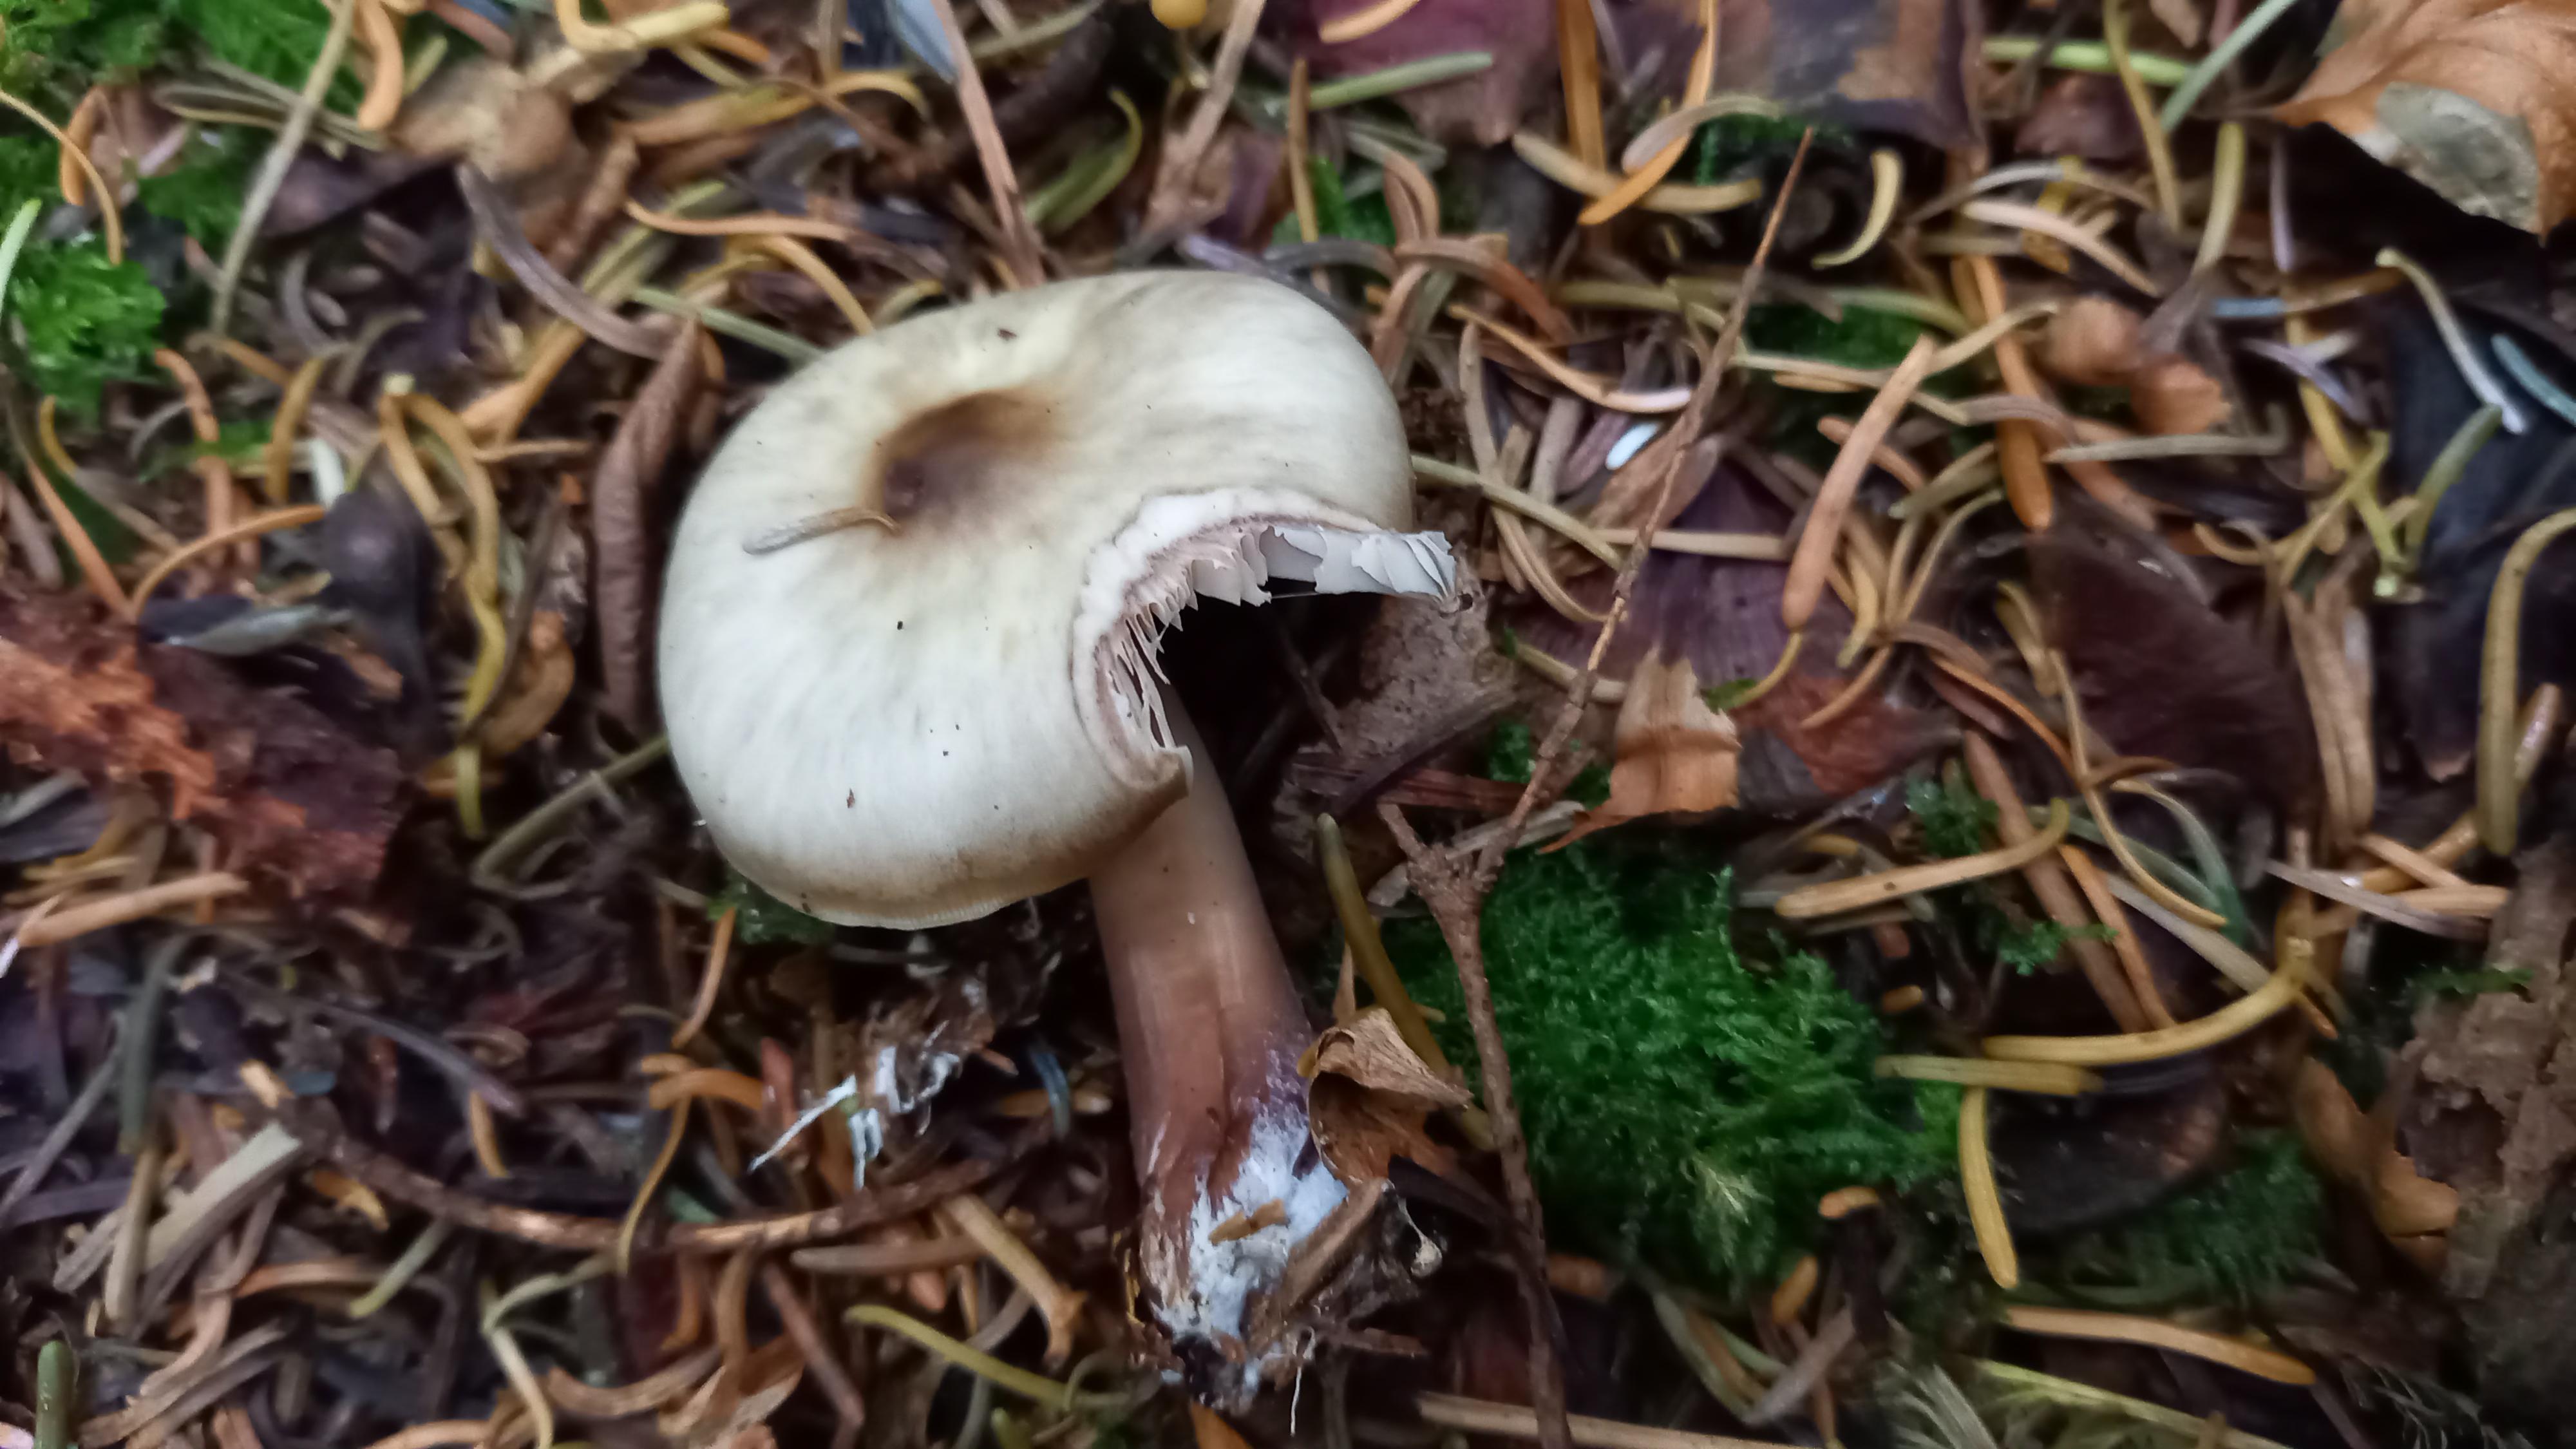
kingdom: Fungi
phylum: Basidiomycota
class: Agaricomycetes
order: Agaricales
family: Omphalotaceae
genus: Rhodocollybia
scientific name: Rhodocollybia butyracea
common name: keglestokket fladhat
